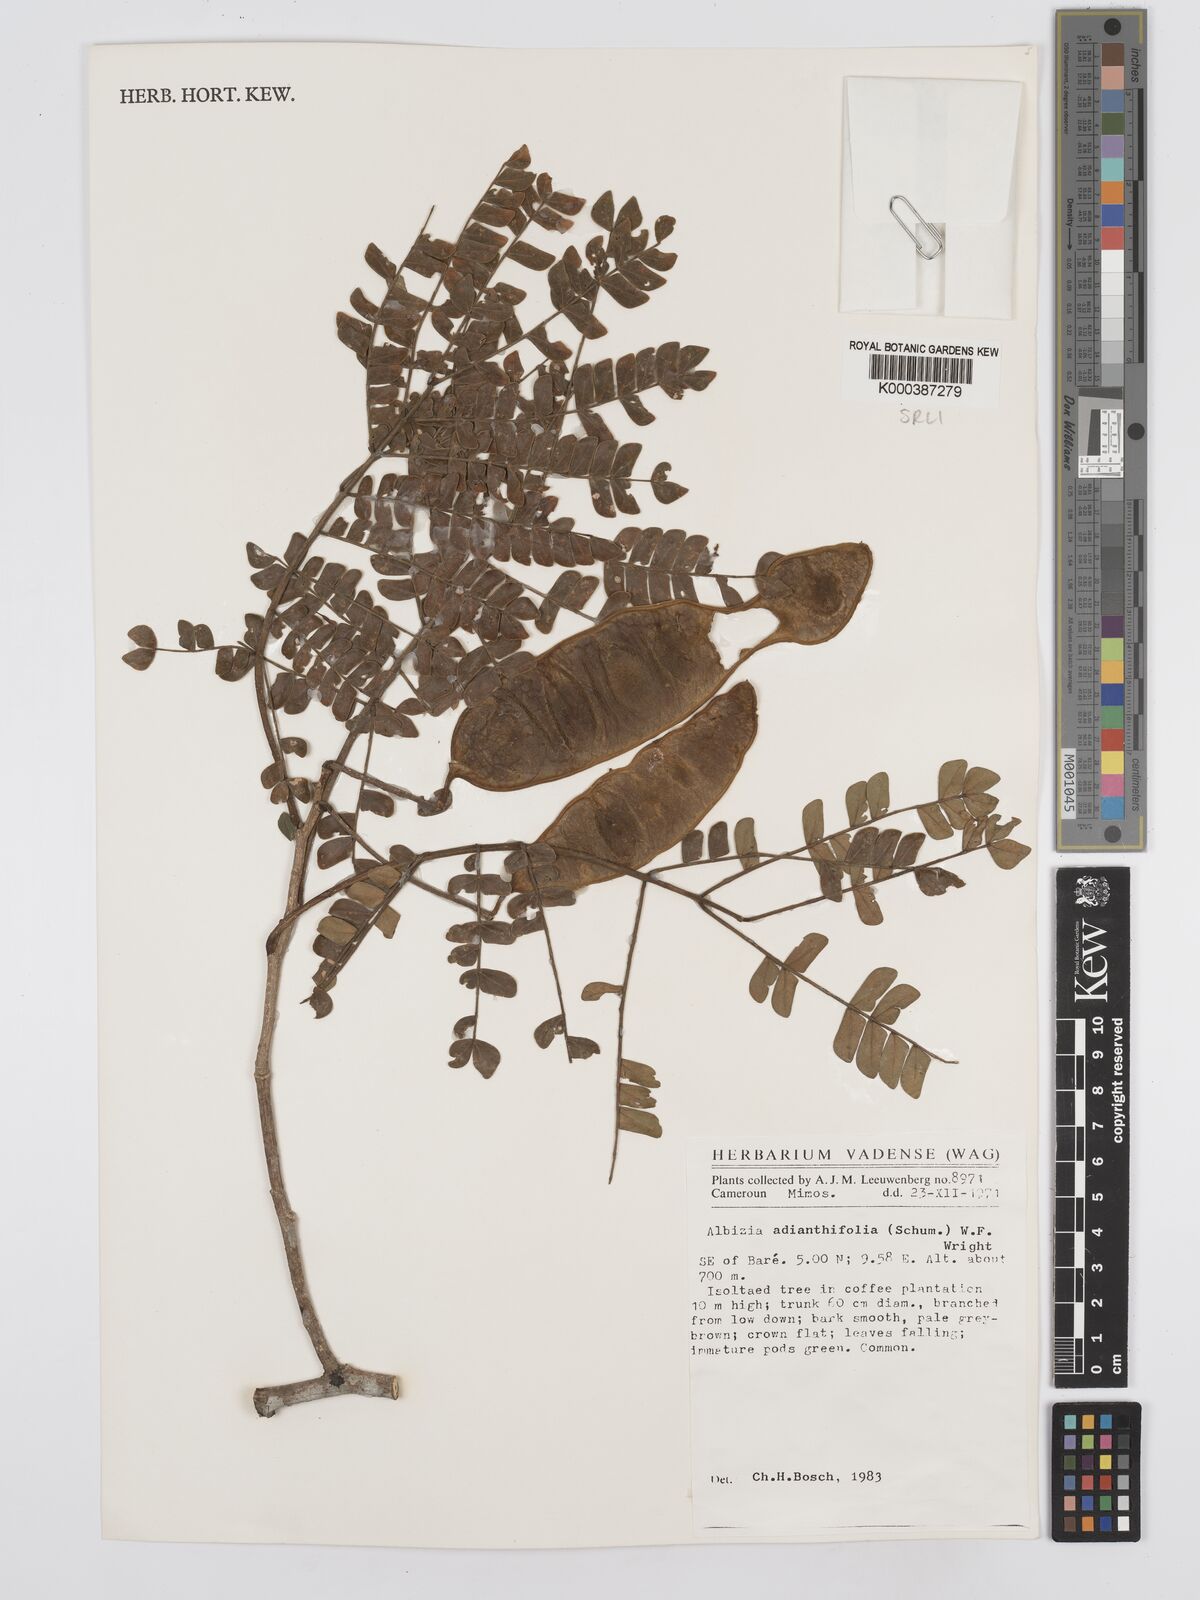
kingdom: Plantae
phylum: Tracheophyta
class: Magnoliopsida
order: Fabales
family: Fabaceae
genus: Albizia
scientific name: Albizia adianthifolia
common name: West african albizia
